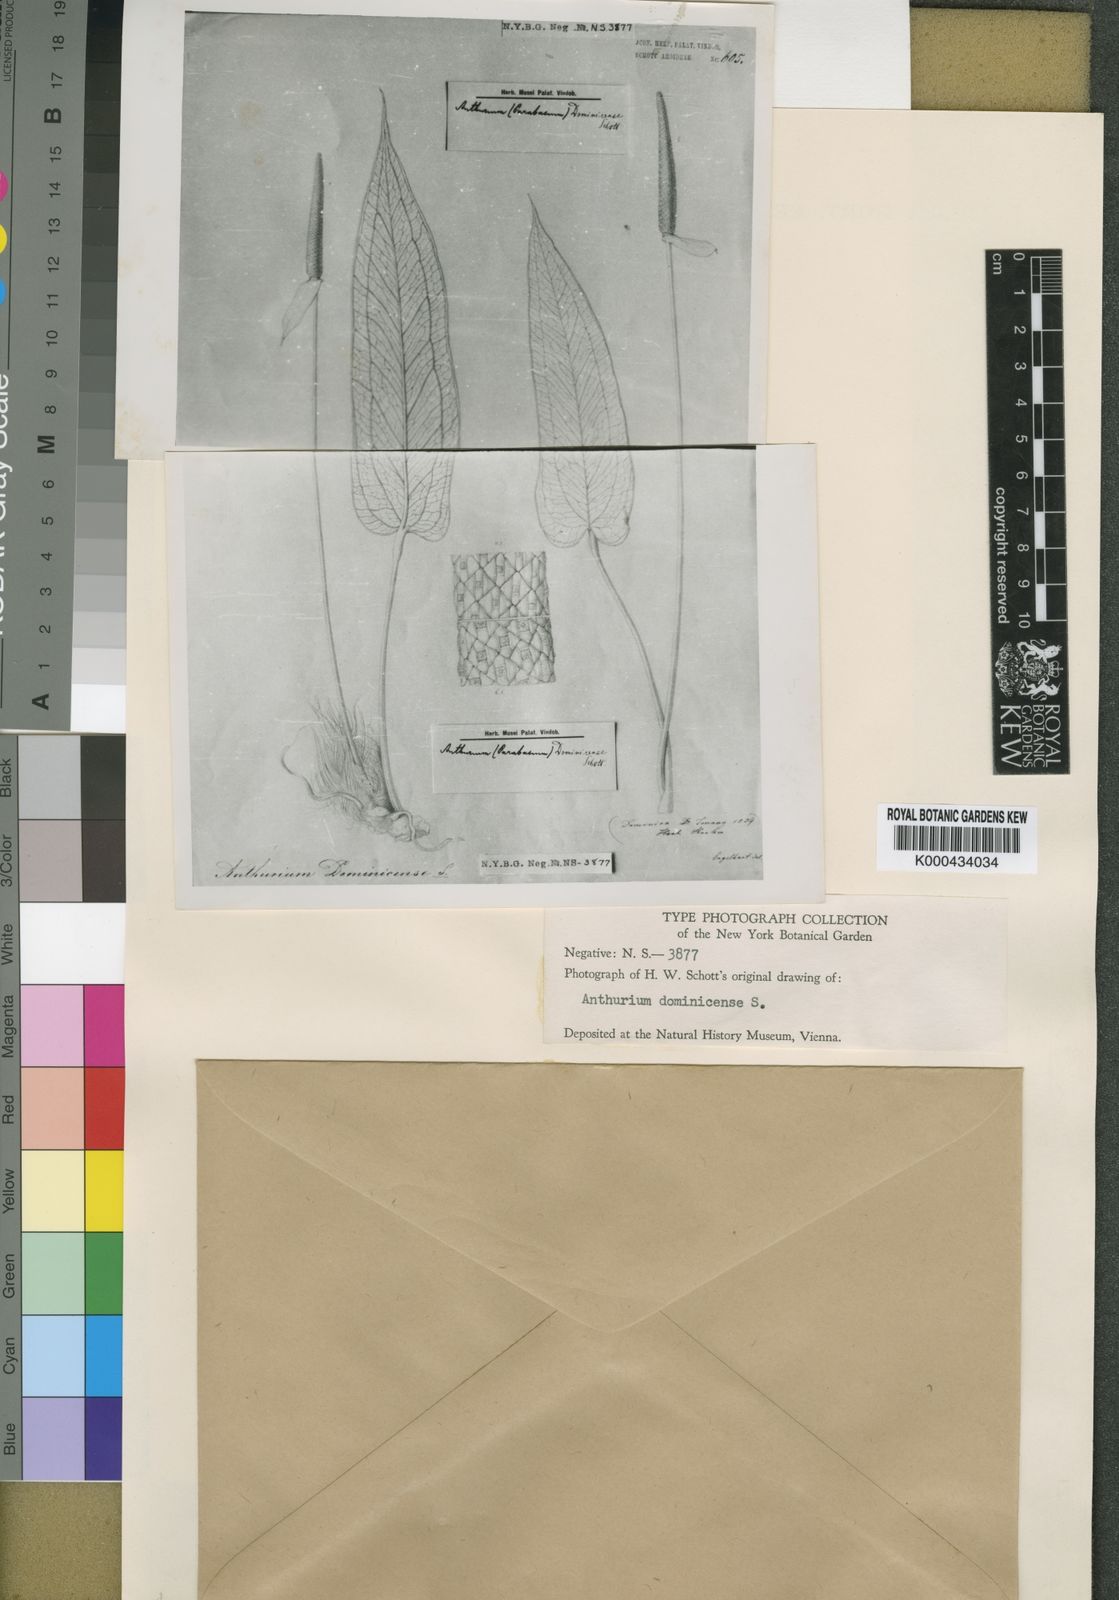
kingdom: Plantae
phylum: Tracheophyta
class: Liliopsida
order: Alismatales
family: Araceae
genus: Anthurium
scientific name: Anthurium dominicense
